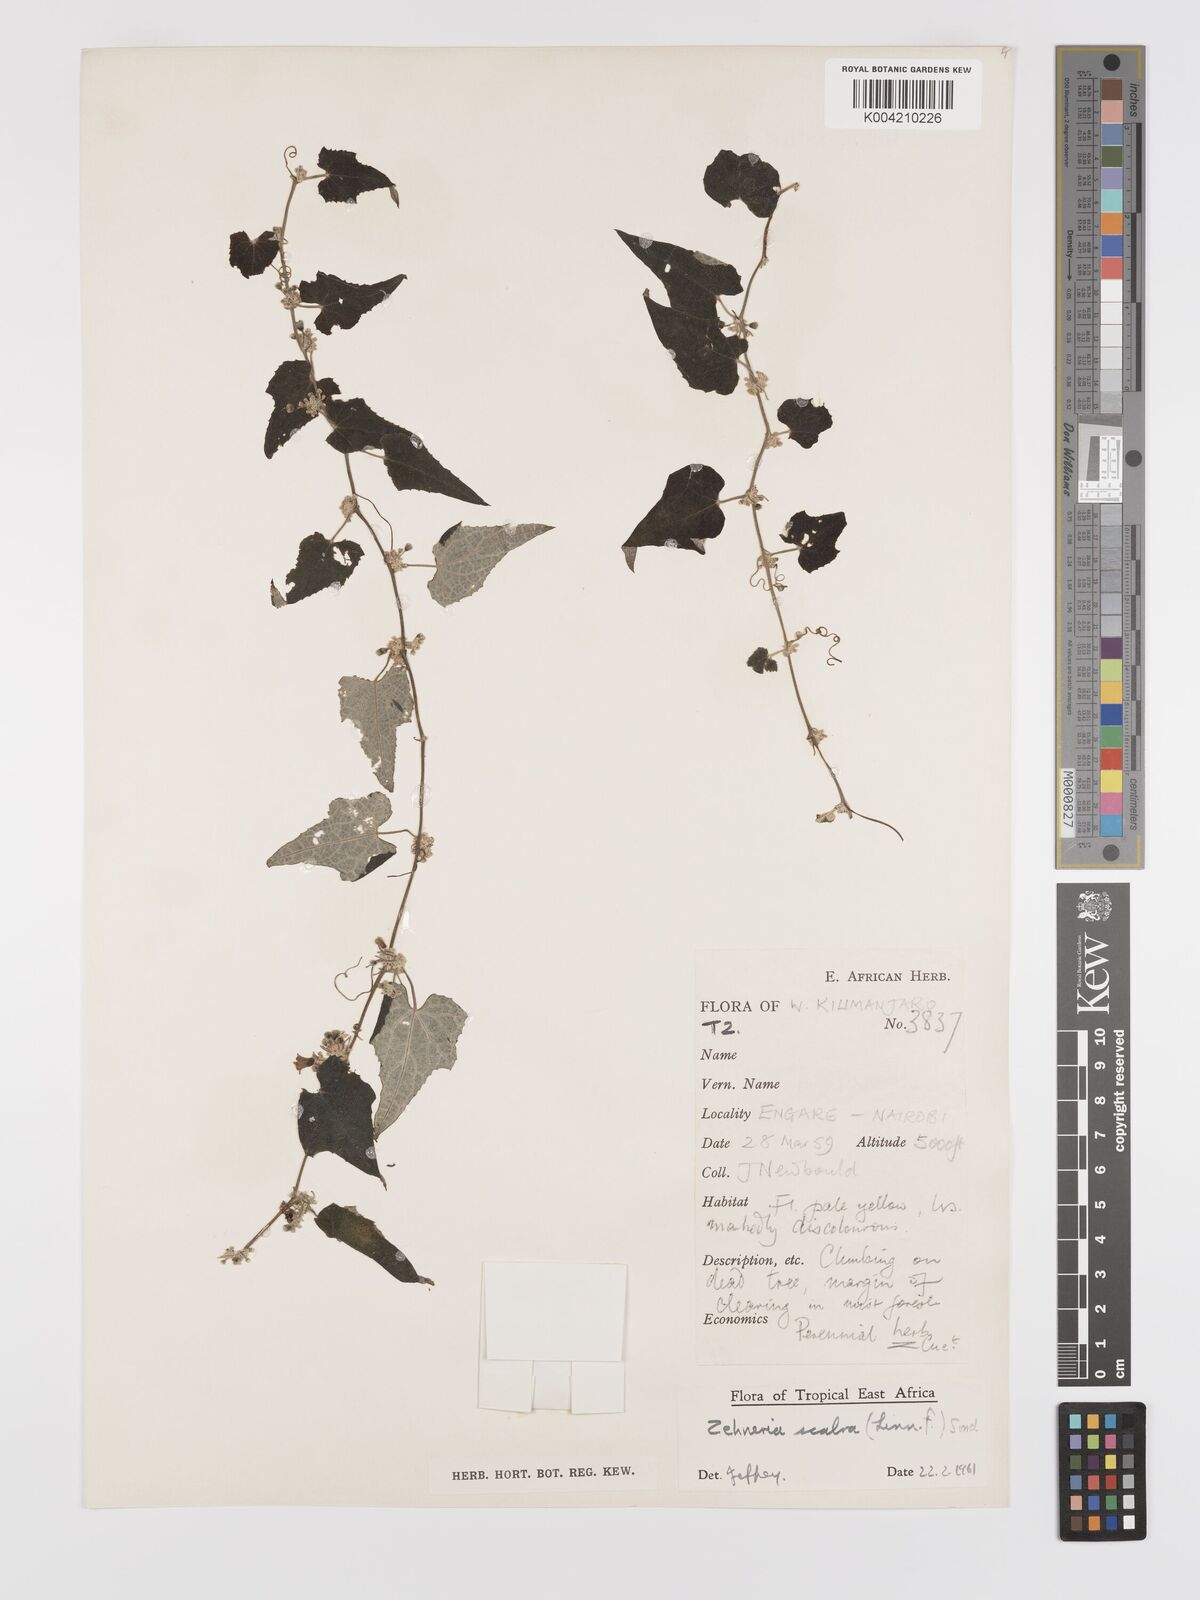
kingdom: Plantae
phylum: Tracheophyta
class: Magnoliopsida
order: Cucurbitales
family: Cucurbitaceae
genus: Zehneria
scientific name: Zehneria scabra
